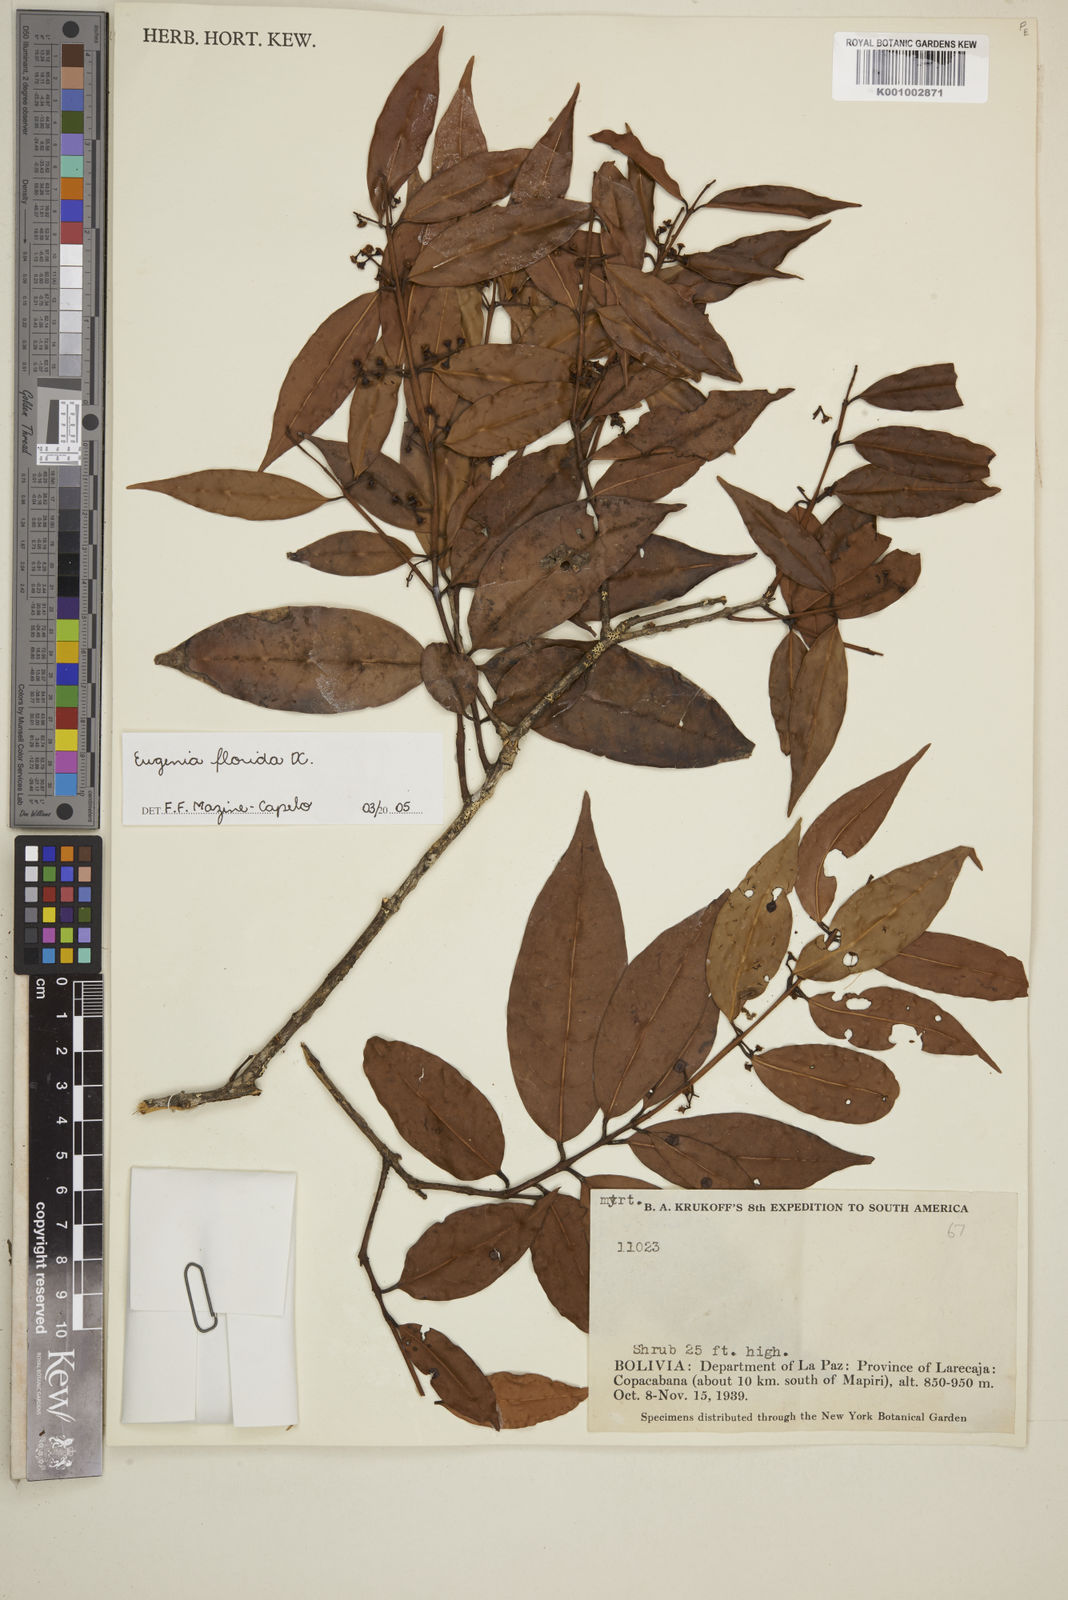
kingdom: Plantae
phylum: Tracheophyta
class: Magnoliopsida
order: Myrtales
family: Myrtaceae
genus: Eugenia
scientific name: Eugenia florida
